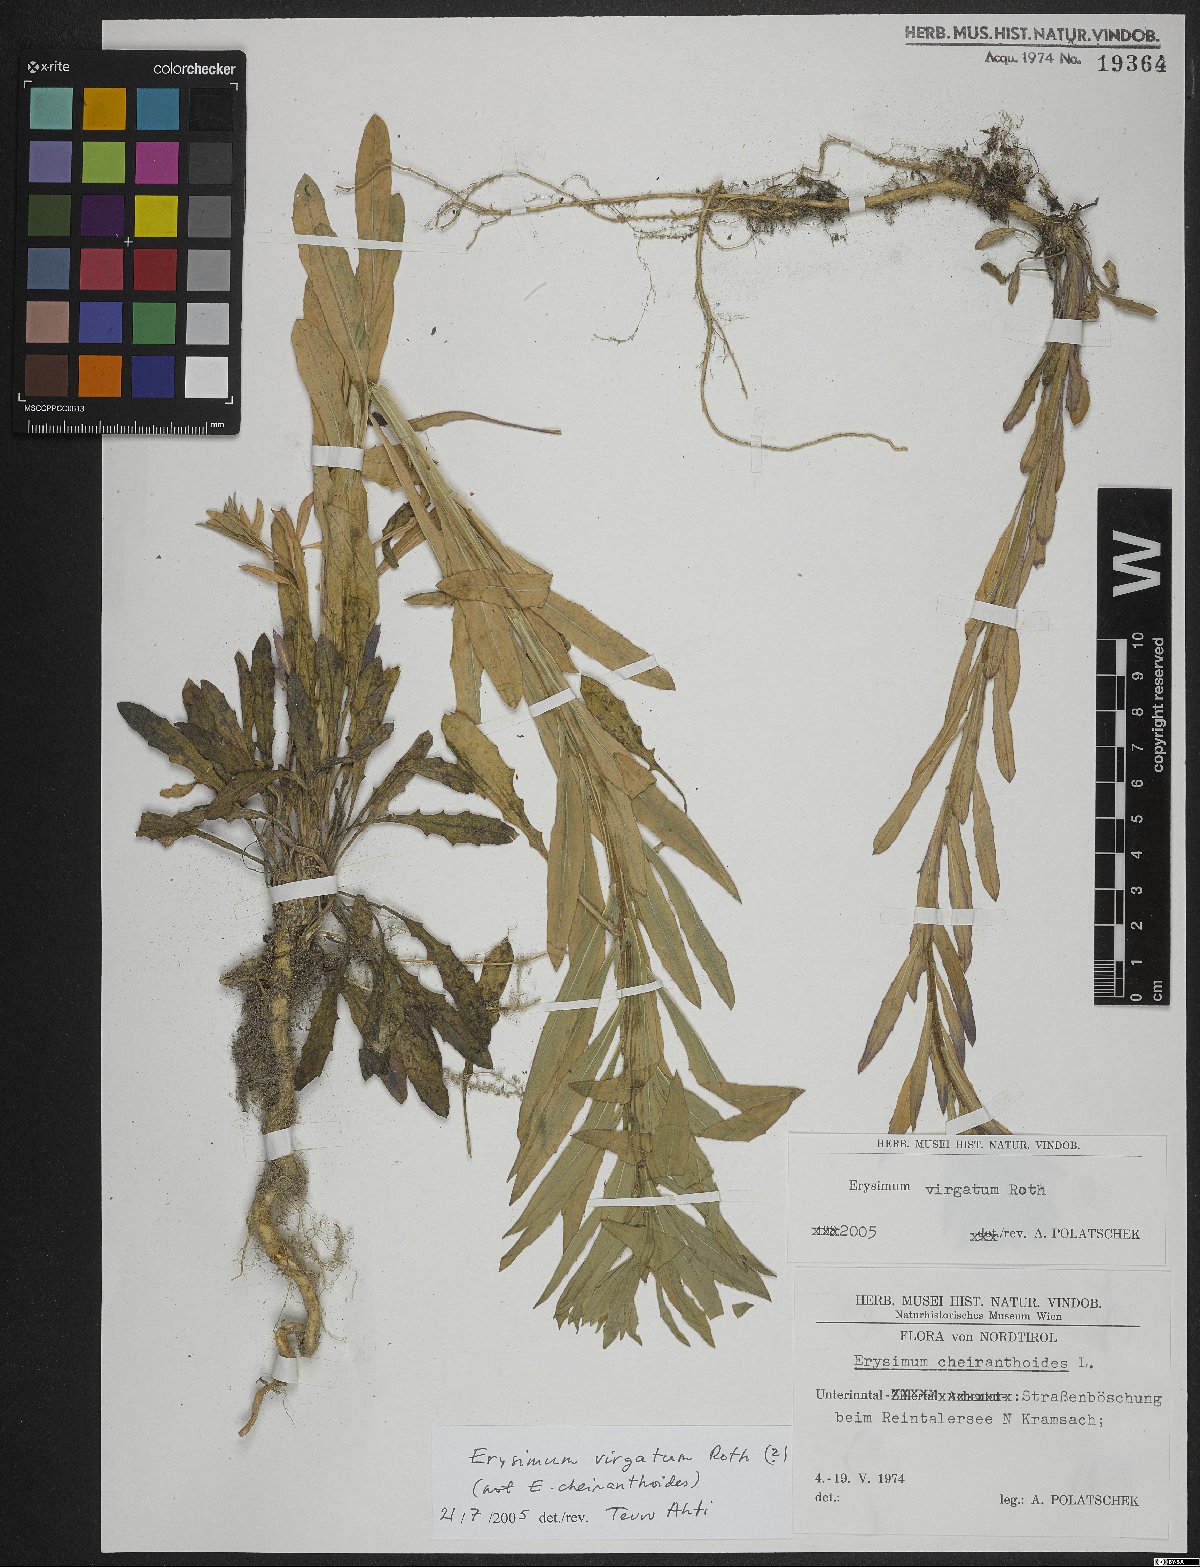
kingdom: Plantae
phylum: Tracheophyta
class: Magnoliopsida
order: Brassicales
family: Brassicaceae
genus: Erysimum
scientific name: Erysimum virgatum
